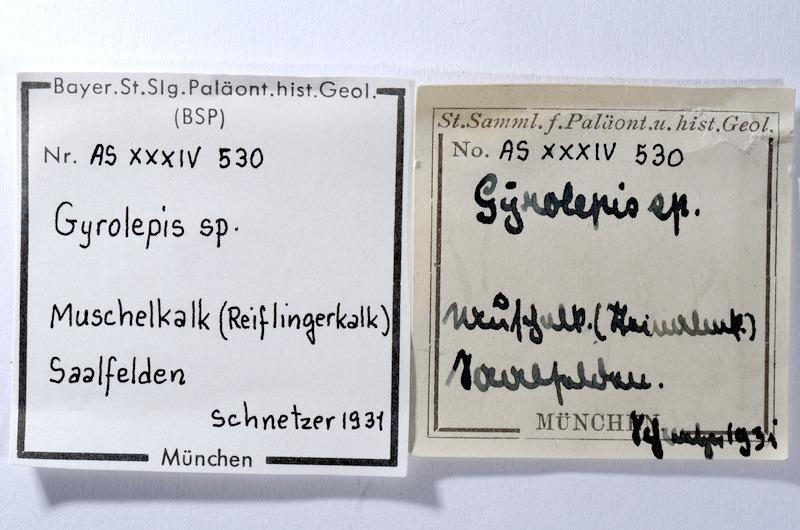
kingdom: Animalia
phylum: Chordata
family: Palaeoniscidae
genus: Gyrolepis
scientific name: Gyrolepis
